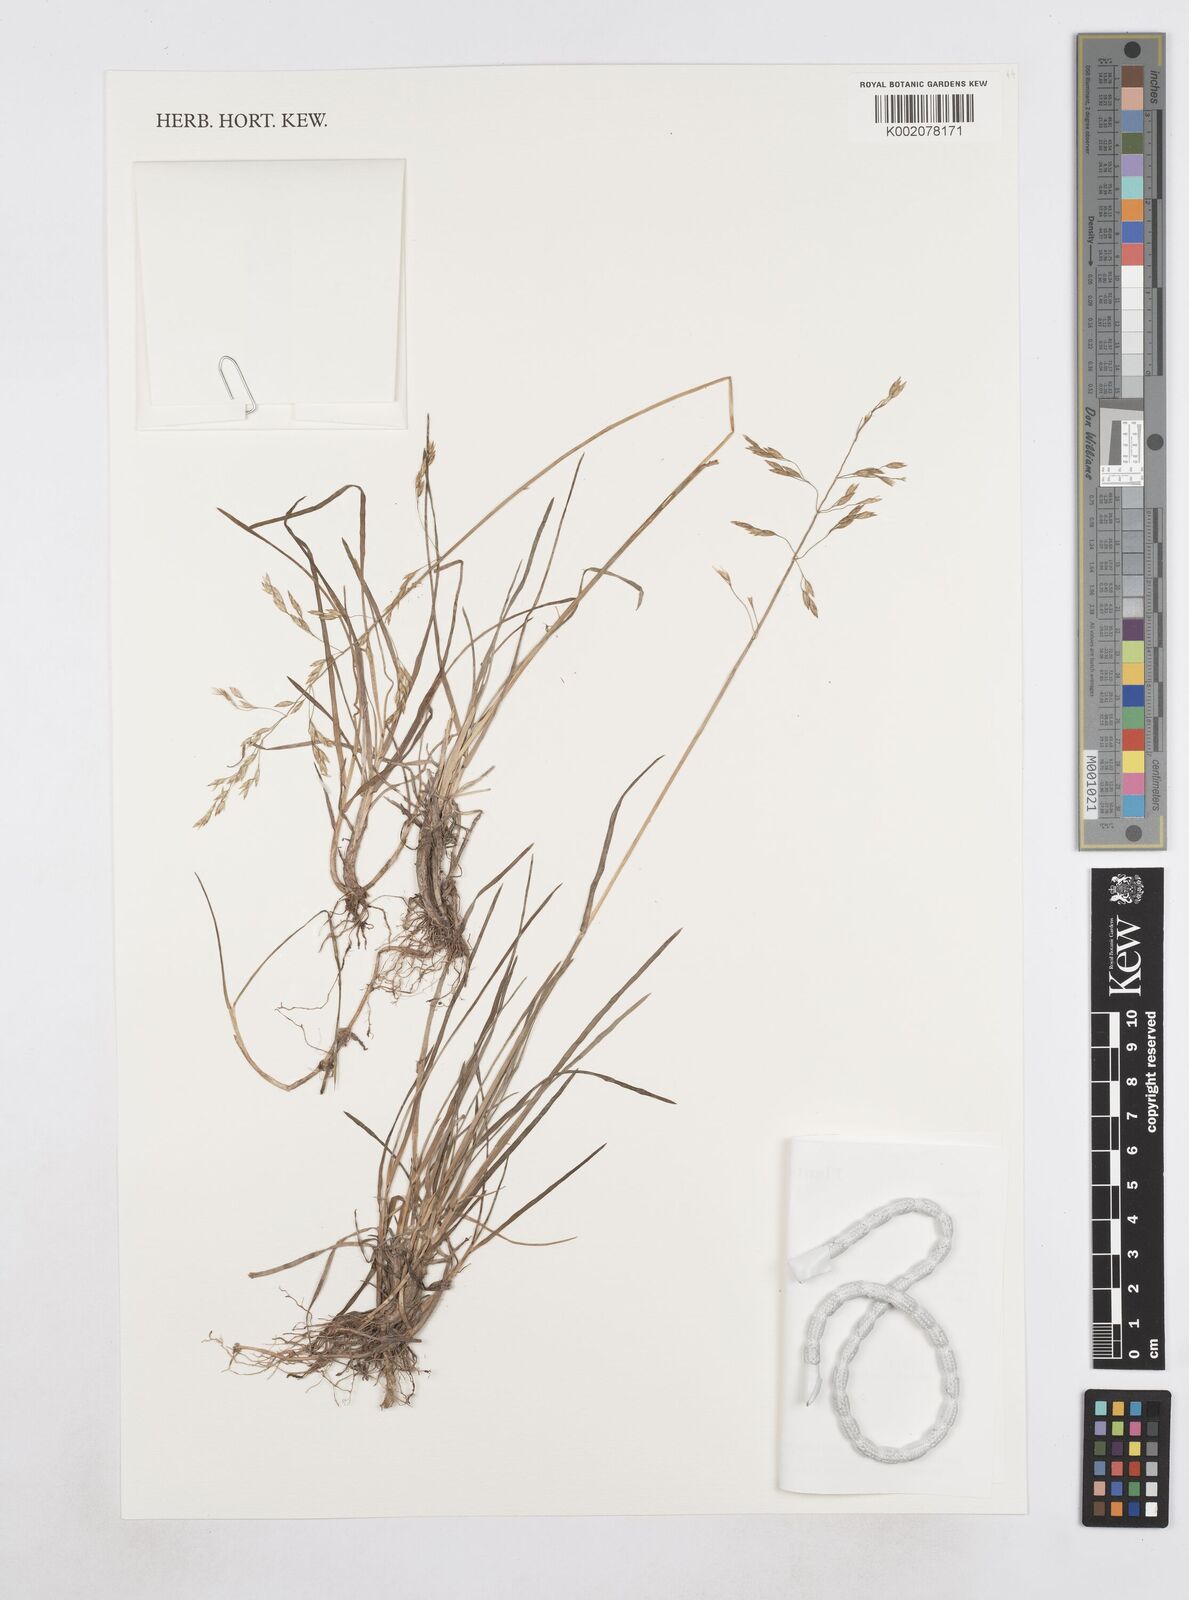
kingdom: Plantae
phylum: Tracheophyta
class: Liliopsida
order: Poales
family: Poaceae
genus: Poa
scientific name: Poa
